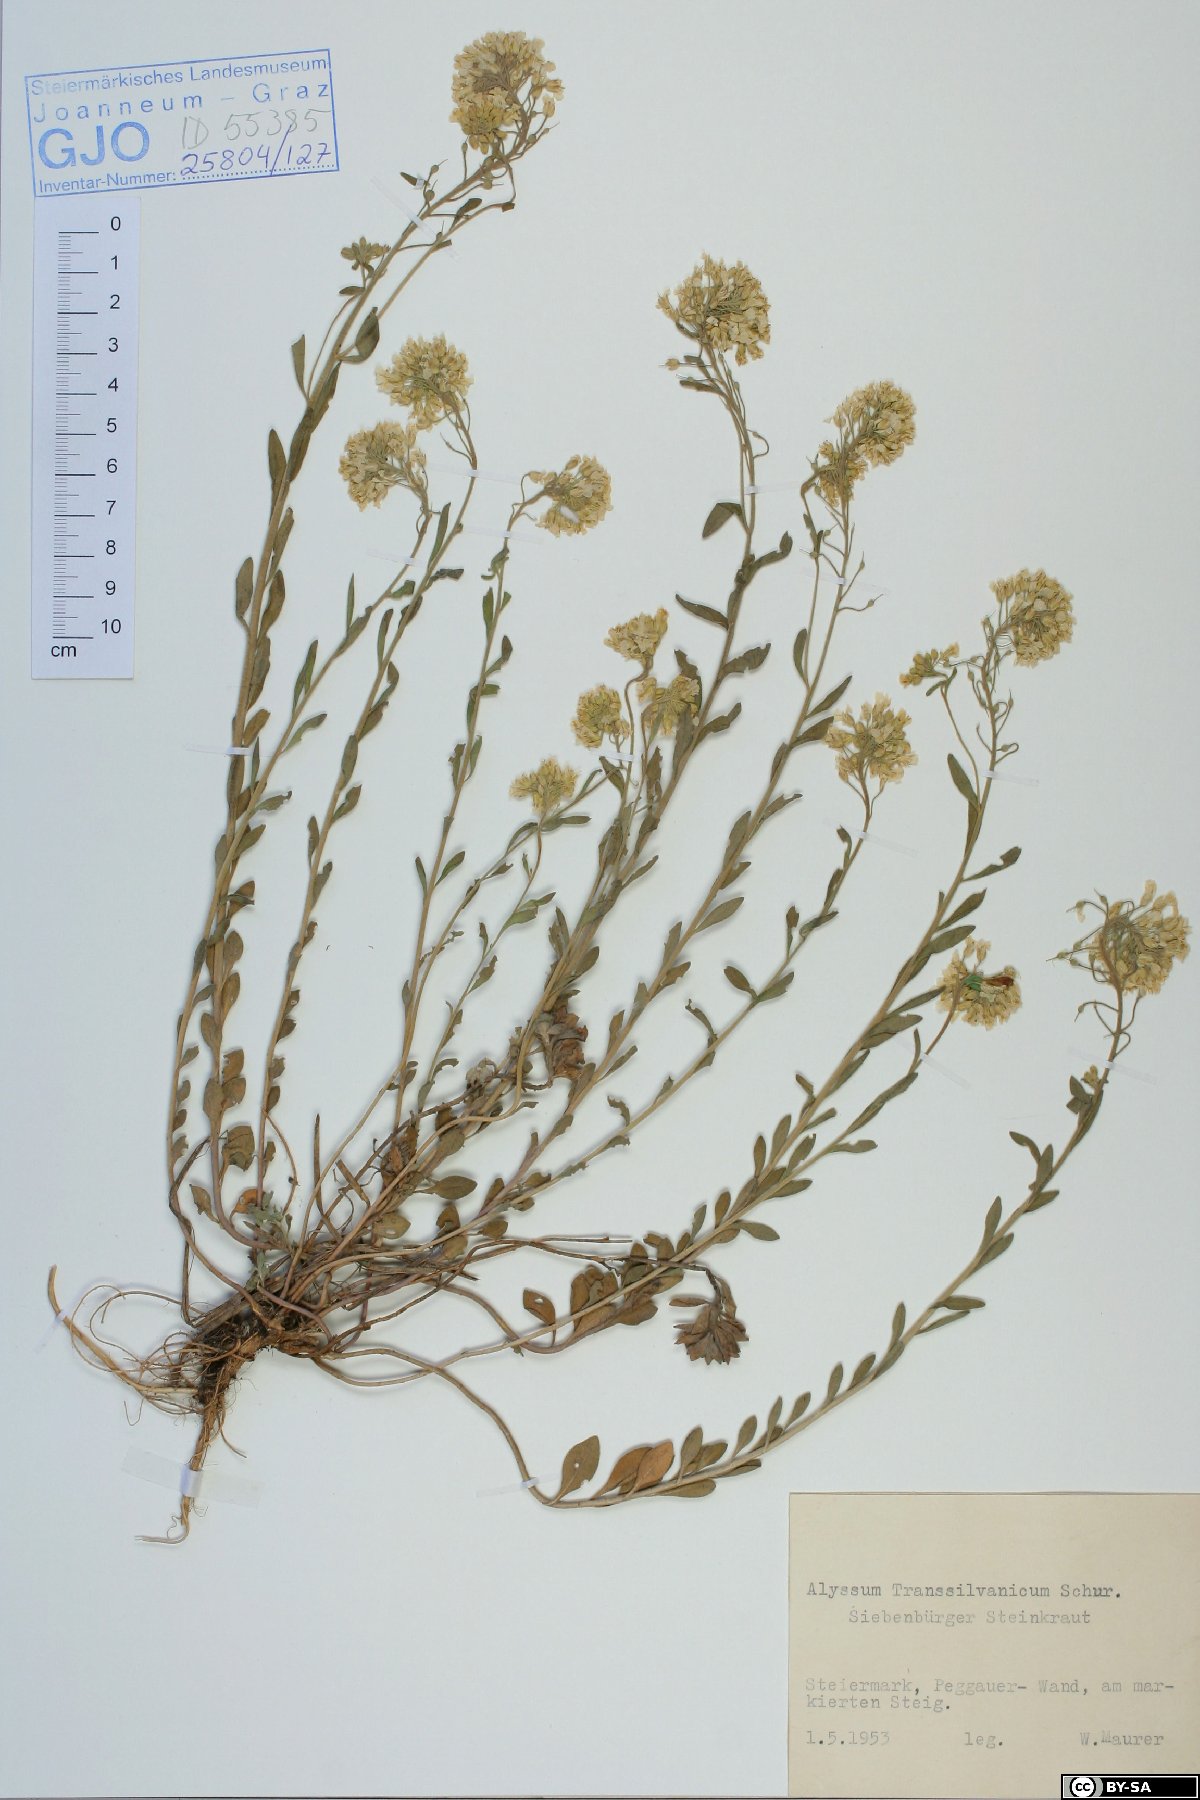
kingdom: Plantae
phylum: Tracheophyta
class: Magnoliopsida
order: Brassicales
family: Brassicaceae
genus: Alyssum
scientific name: Alyssum repens
